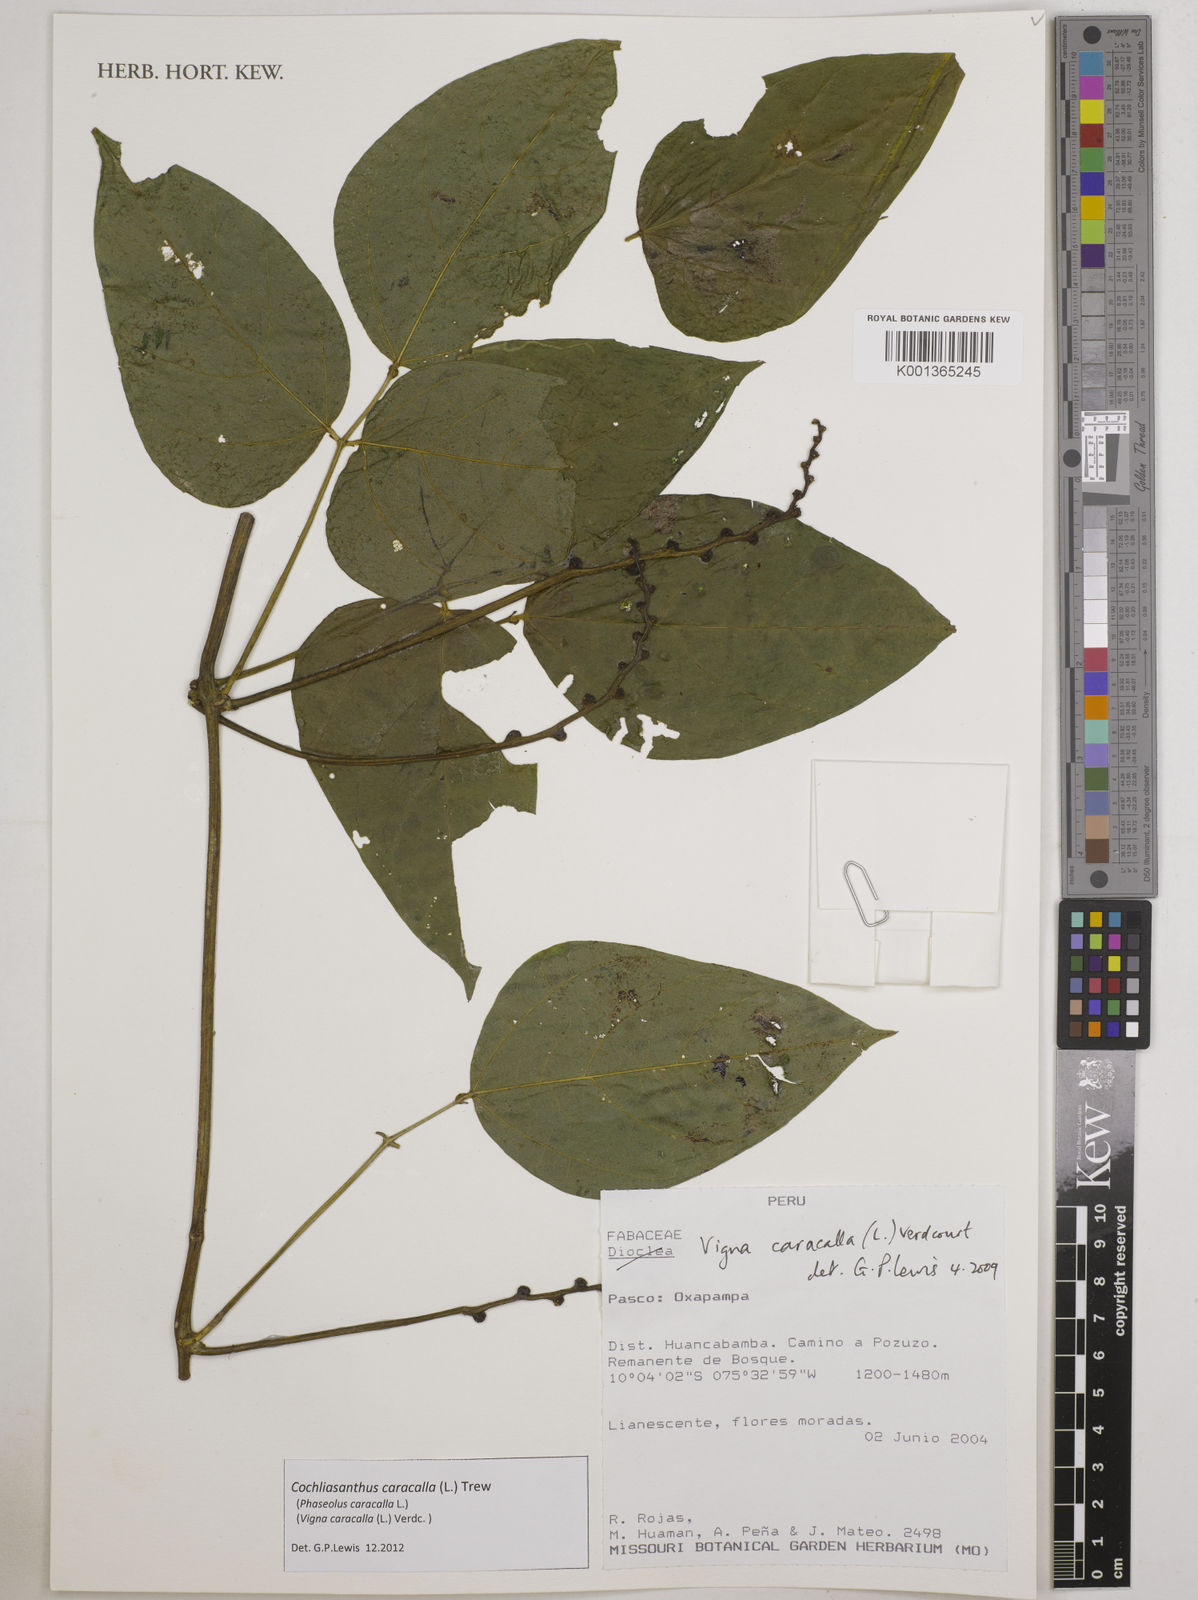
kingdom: Plantae
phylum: Tracheophyta
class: Magnoliopsida
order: Fabales
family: Fabaceae
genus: Cochliasanthus
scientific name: Cochliasanthus caracalla
